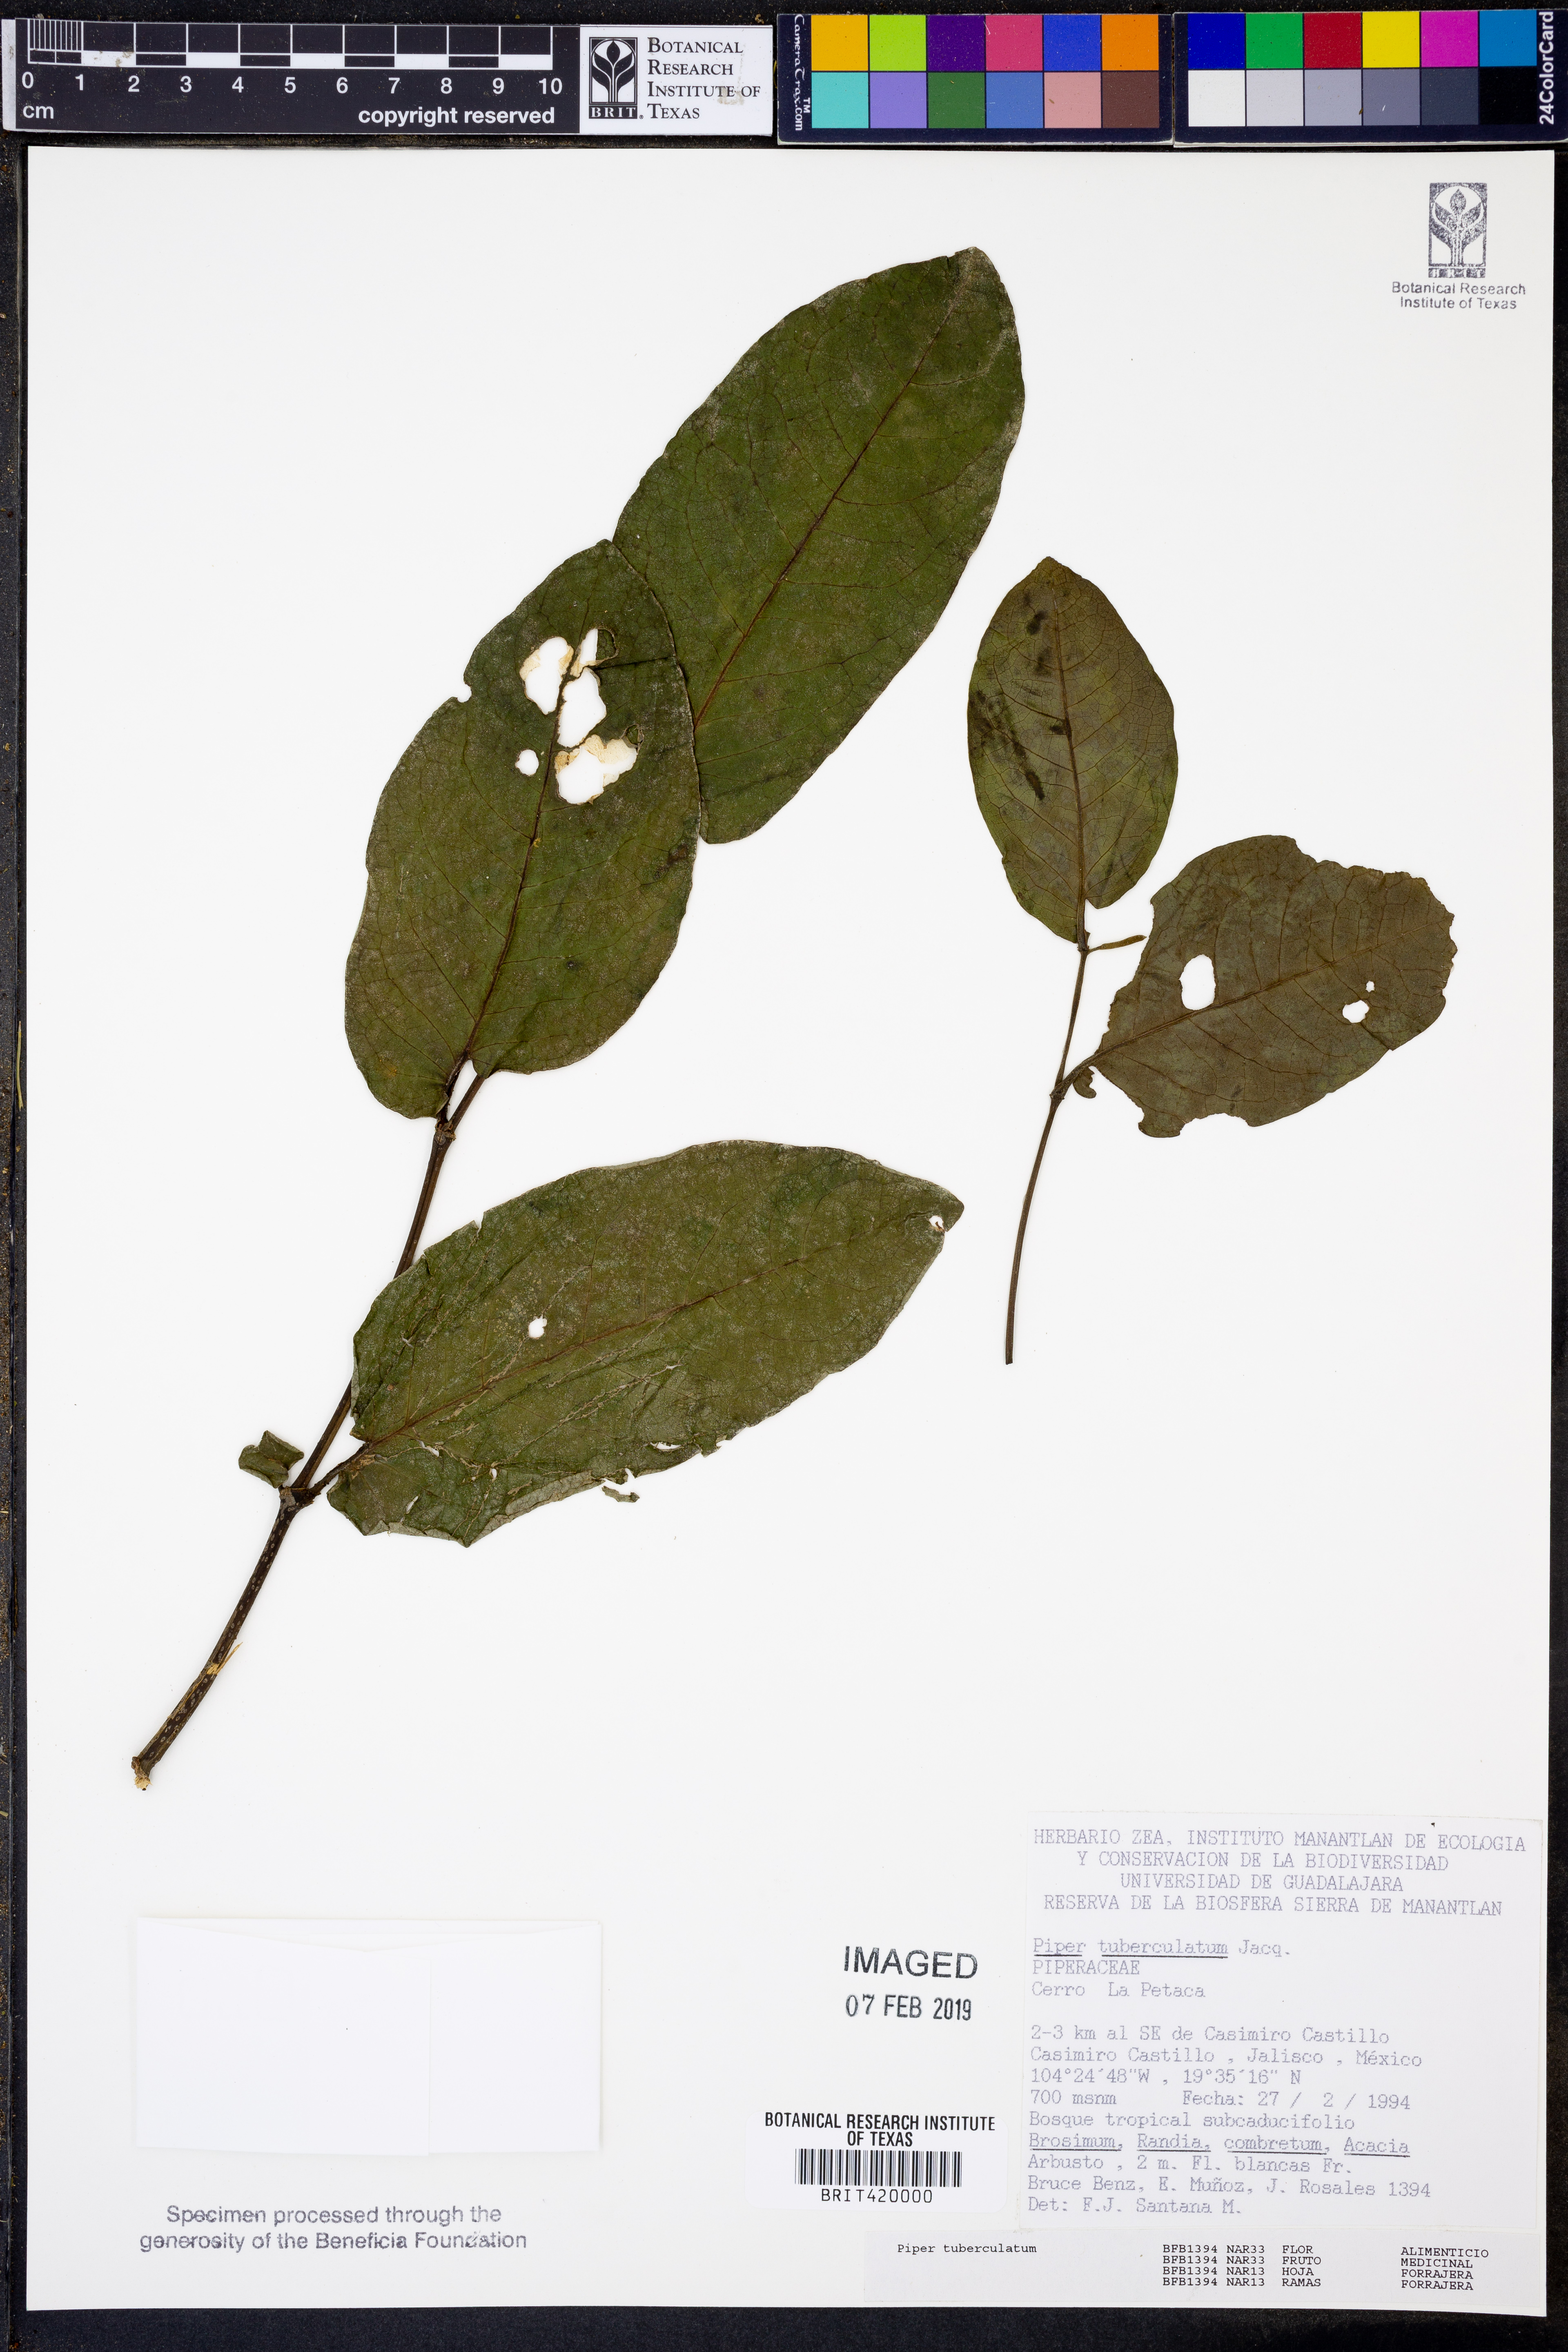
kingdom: Plantae
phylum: Tracheophyta
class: Magnoliopsida
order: Piperales
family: Piperaceae
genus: Piper
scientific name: Piper tuberculatum
